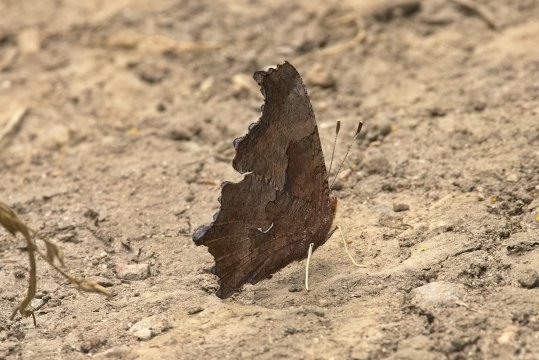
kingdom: Animalia
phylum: Arthropoda
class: Insecta
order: Lepidoptera
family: Nymphalidae
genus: Polygonia
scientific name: Polygonia comma
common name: Eastern Comma
